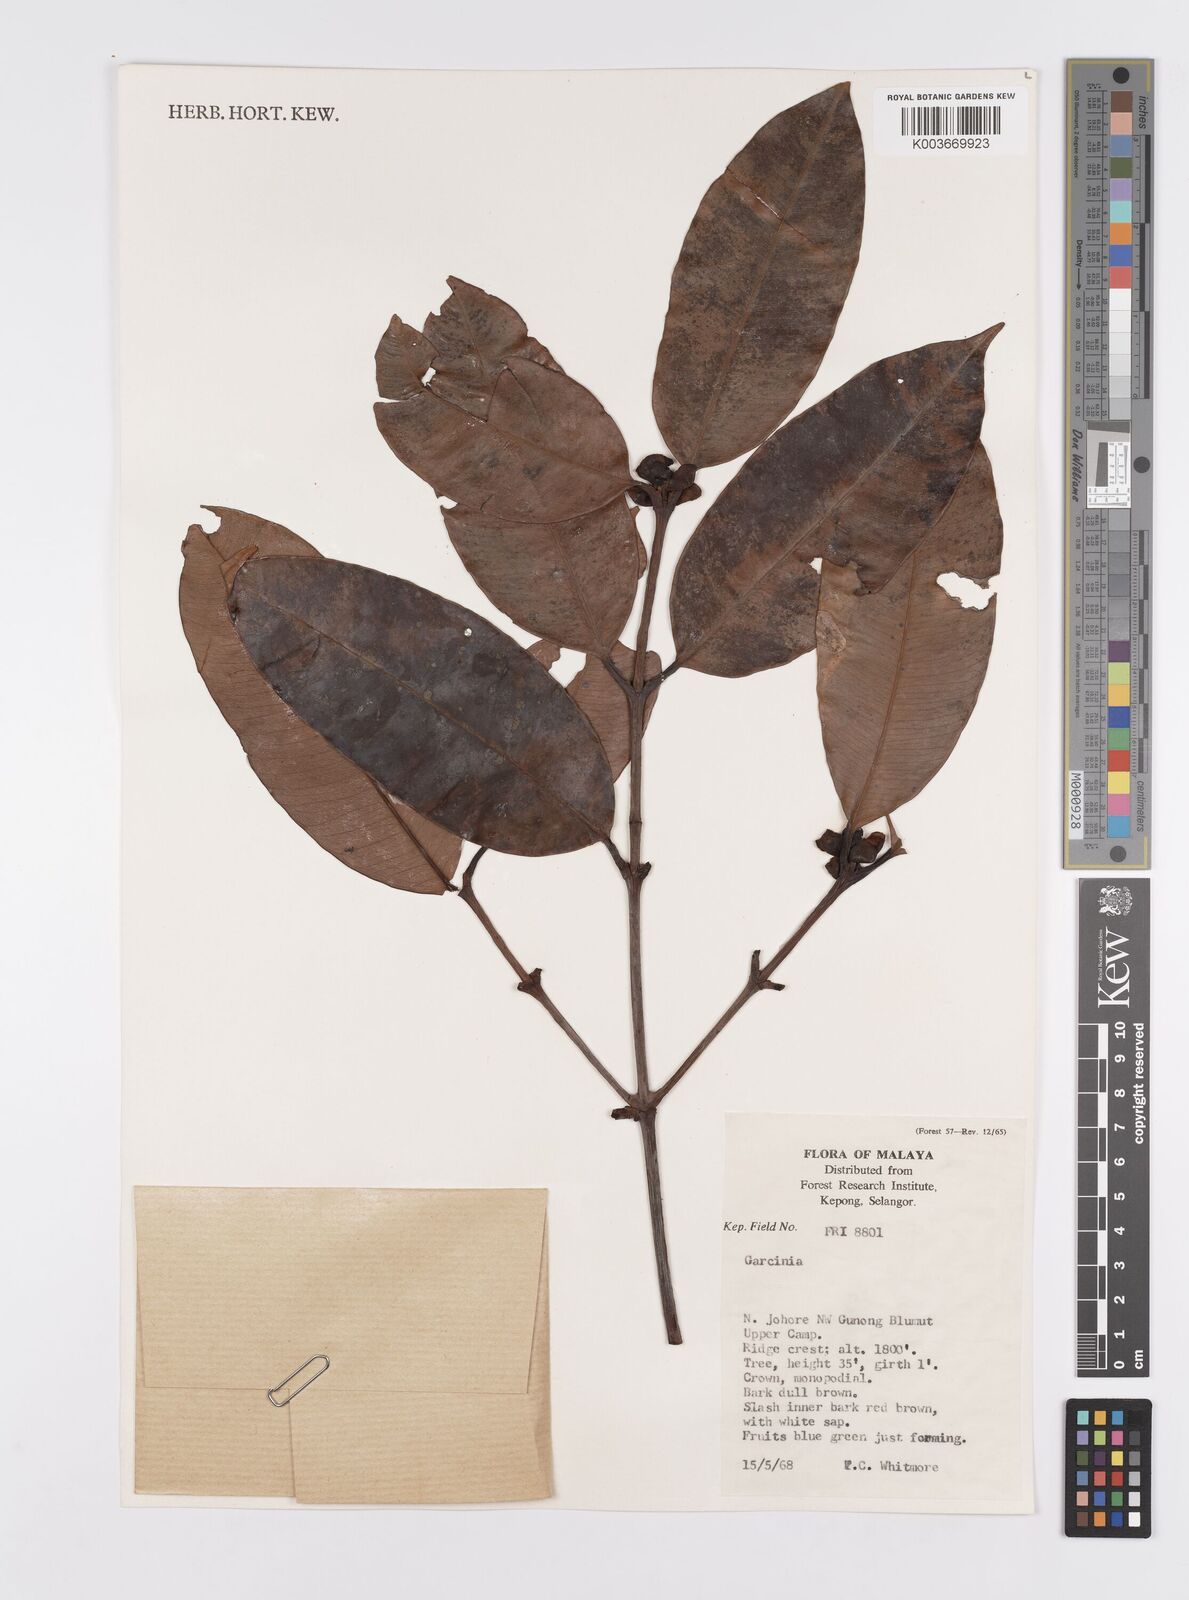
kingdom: Plantae
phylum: Tracheophyta
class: Magnoliopsida
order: Malpighiales
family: Clusiaceae
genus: Garcinia
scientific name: Garcinia
